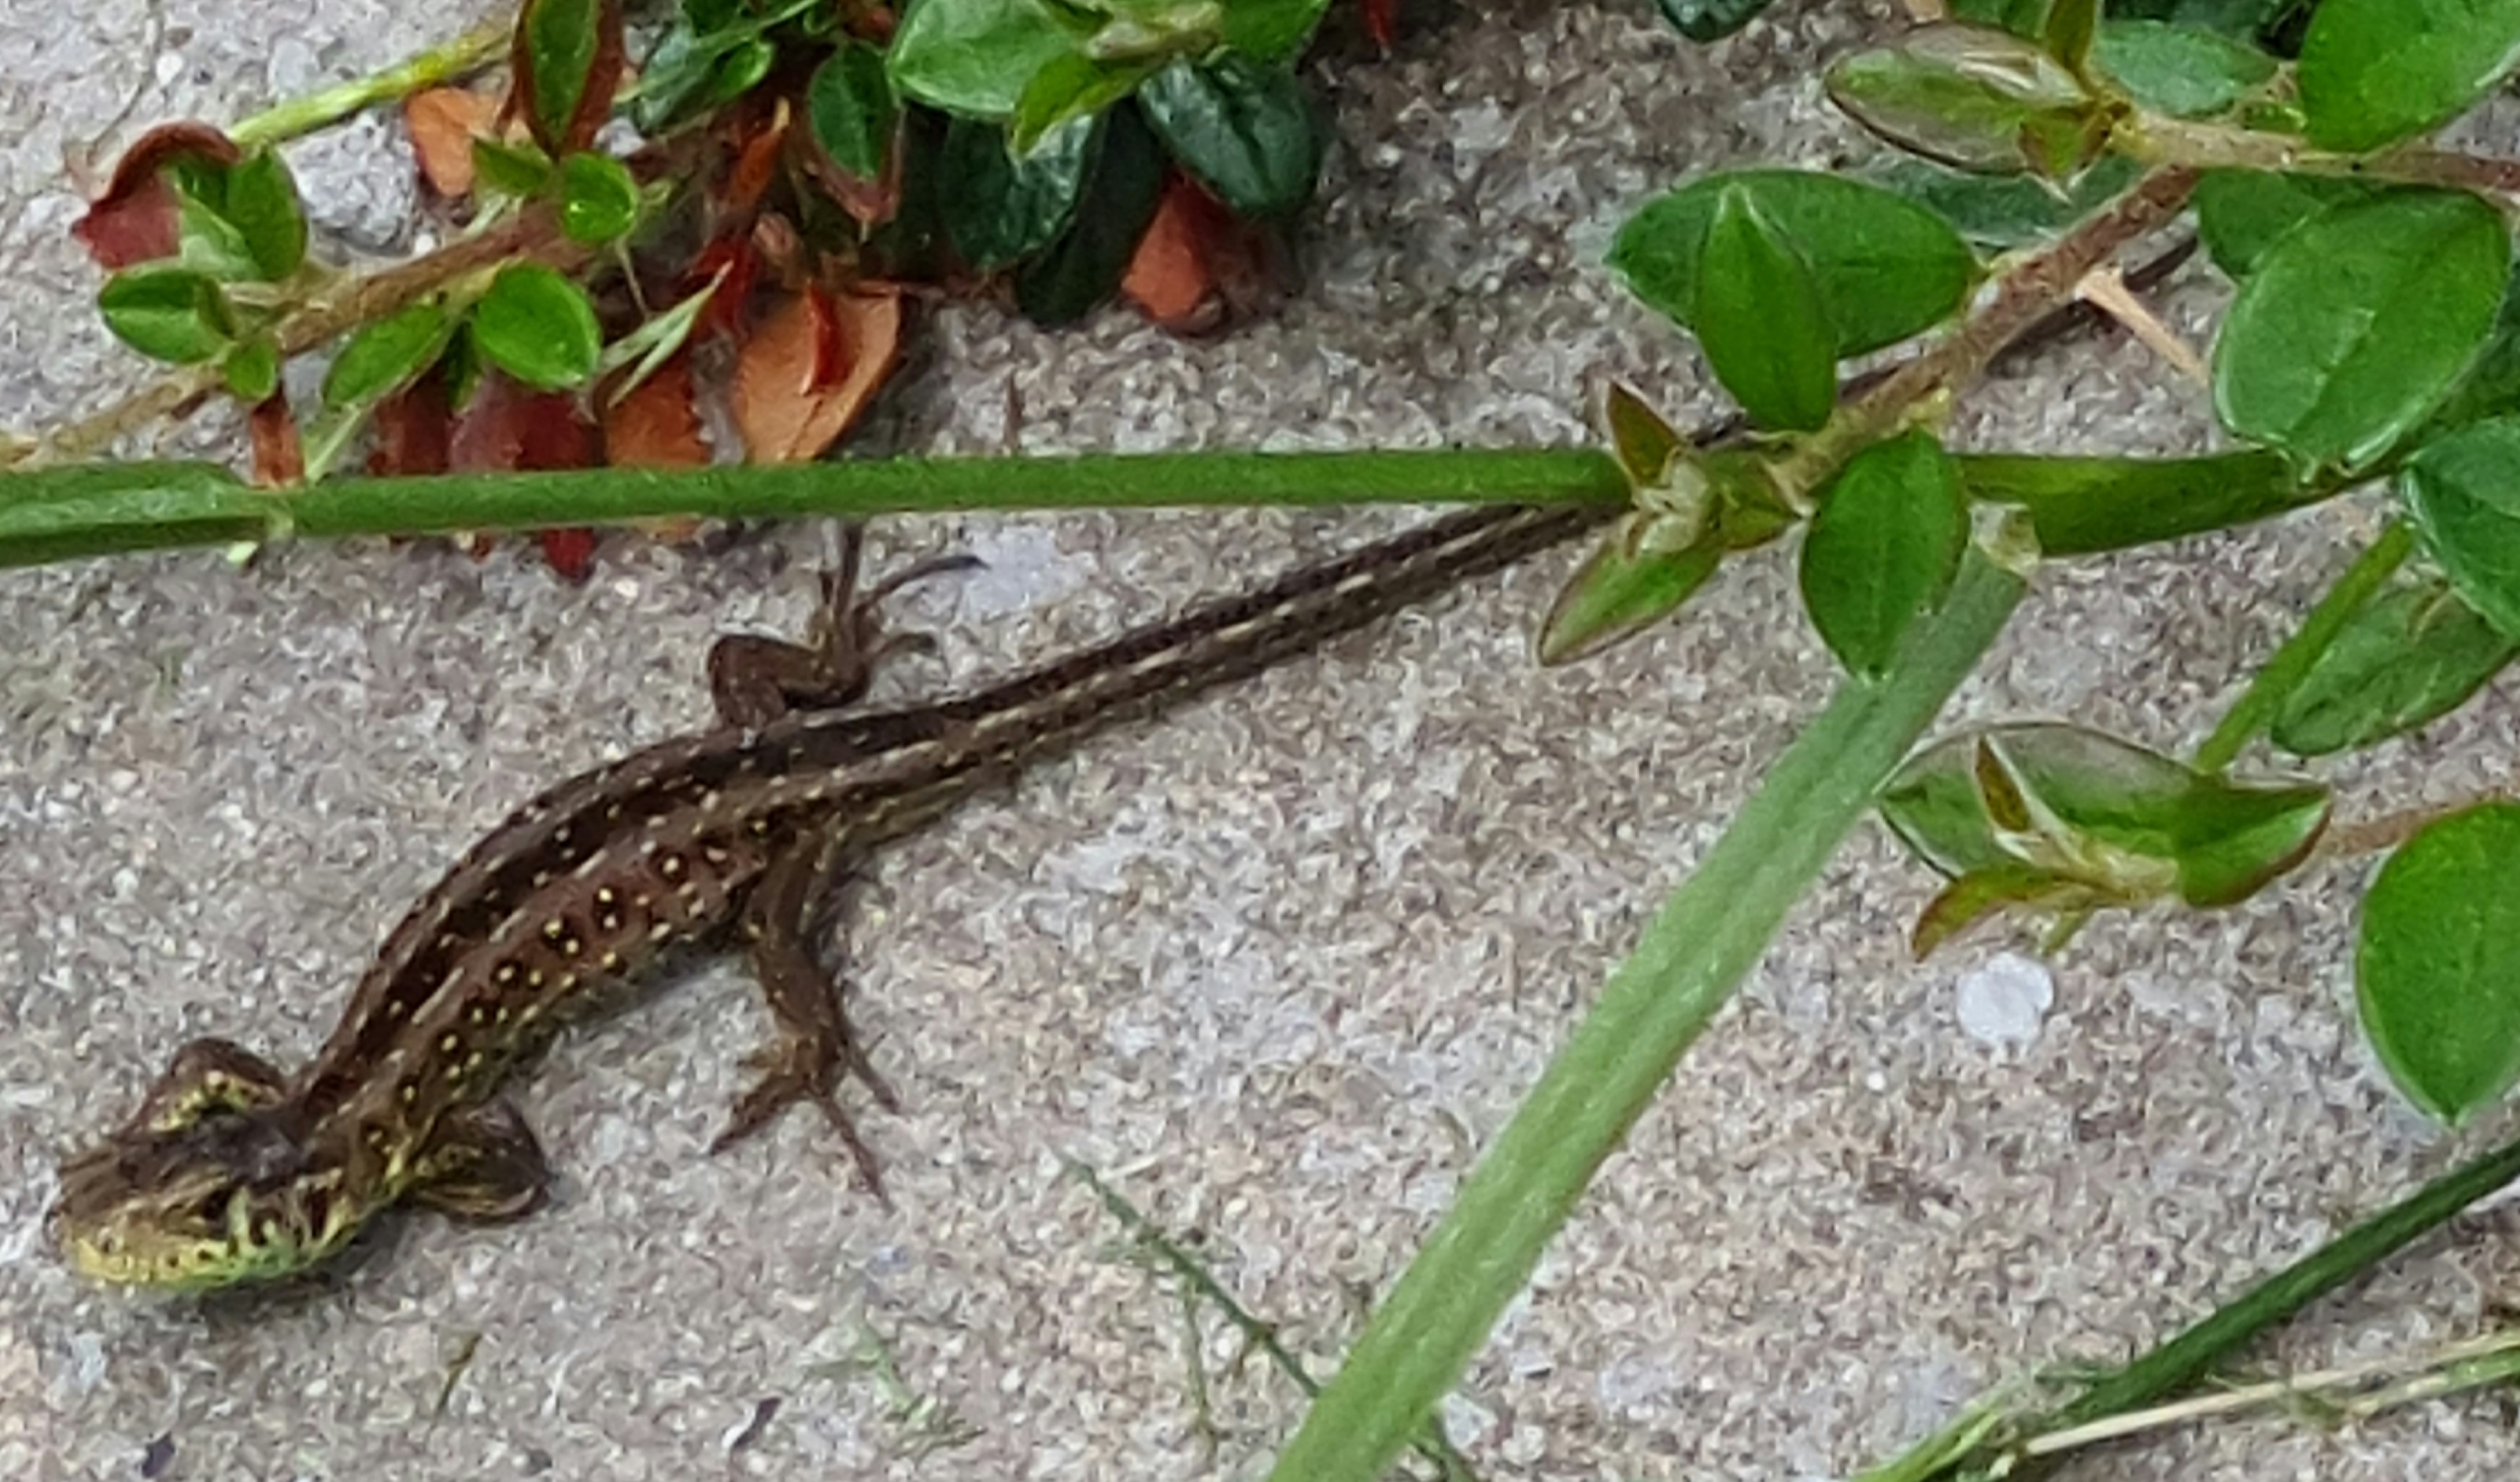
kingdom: Animalia
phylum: Chordata
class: Squamata
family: Lacertidae
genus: Lacerta
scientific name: Lacerta agilis
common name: Markfirben
